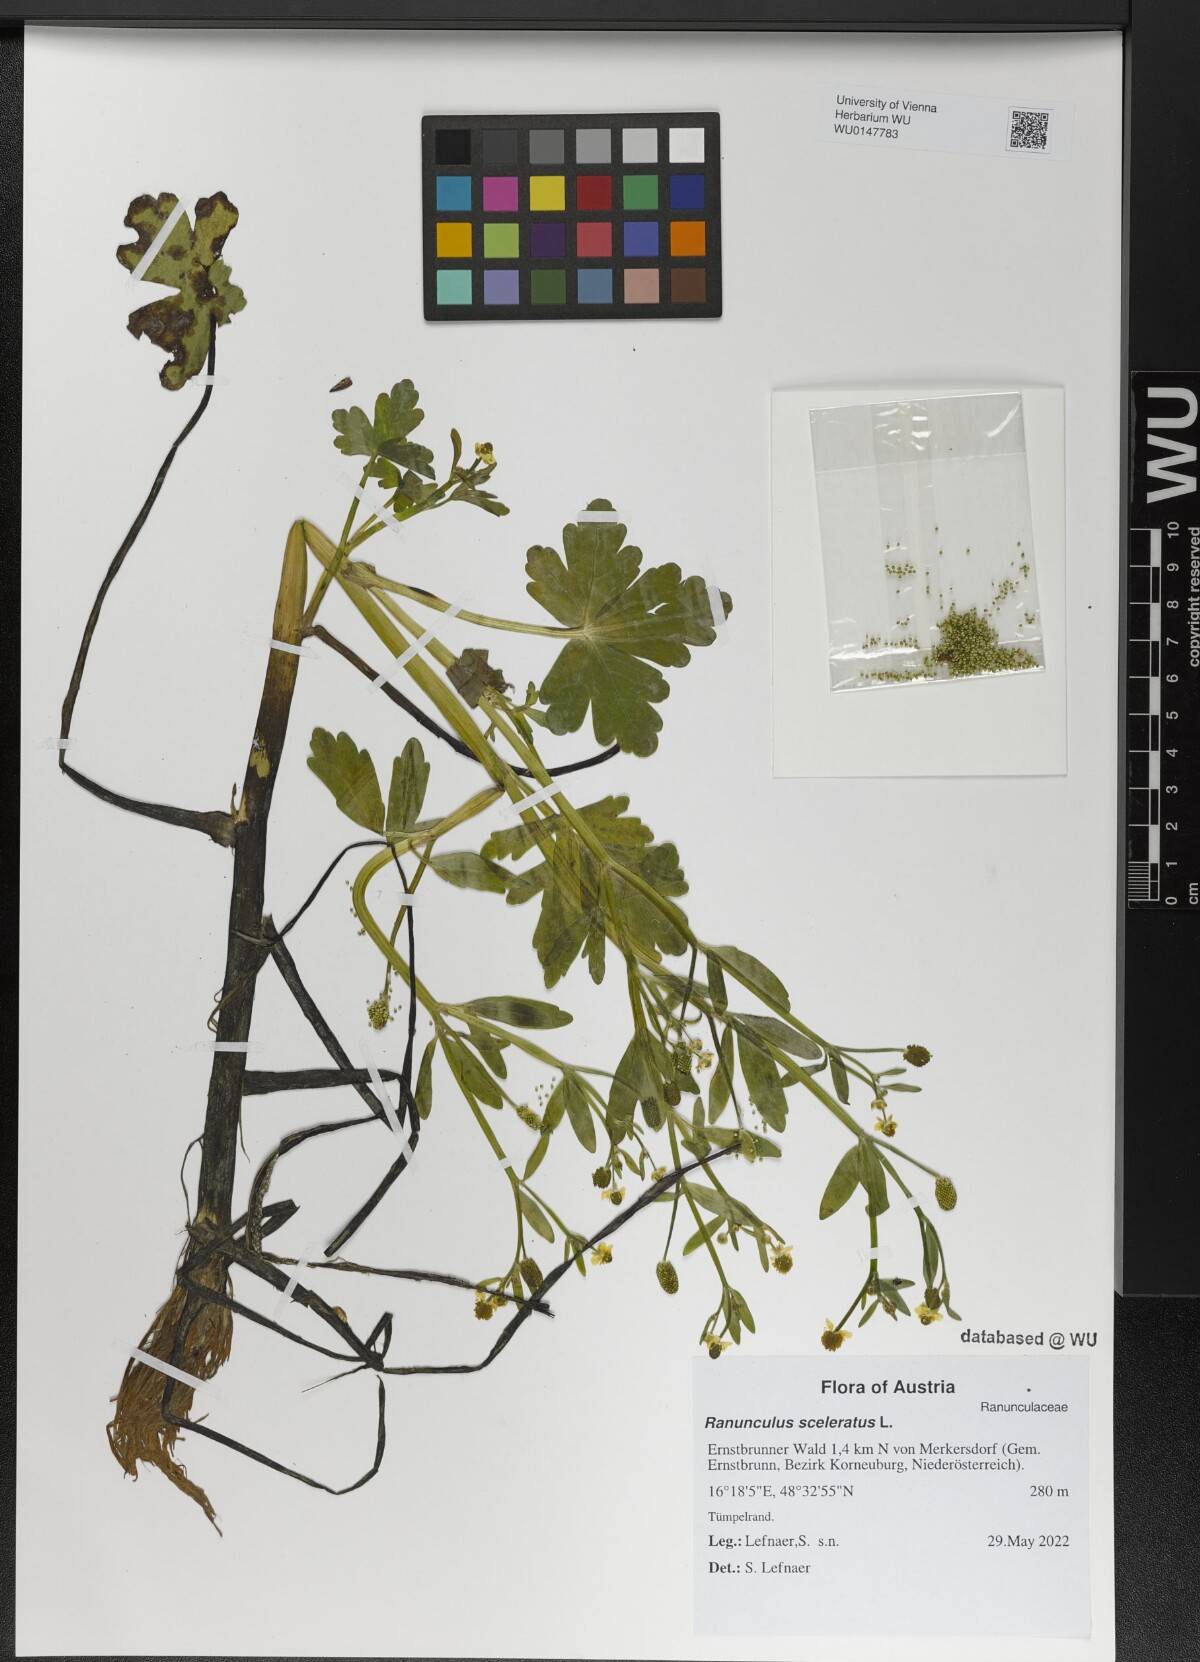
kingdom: Plantae
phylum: Tracheophyta
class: Magnoliopsida
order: Ranunculales
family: Ranunculaceae
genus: Ranunculus
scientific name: Ranunculus sceleratus
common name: Celery-leaved buttercup
